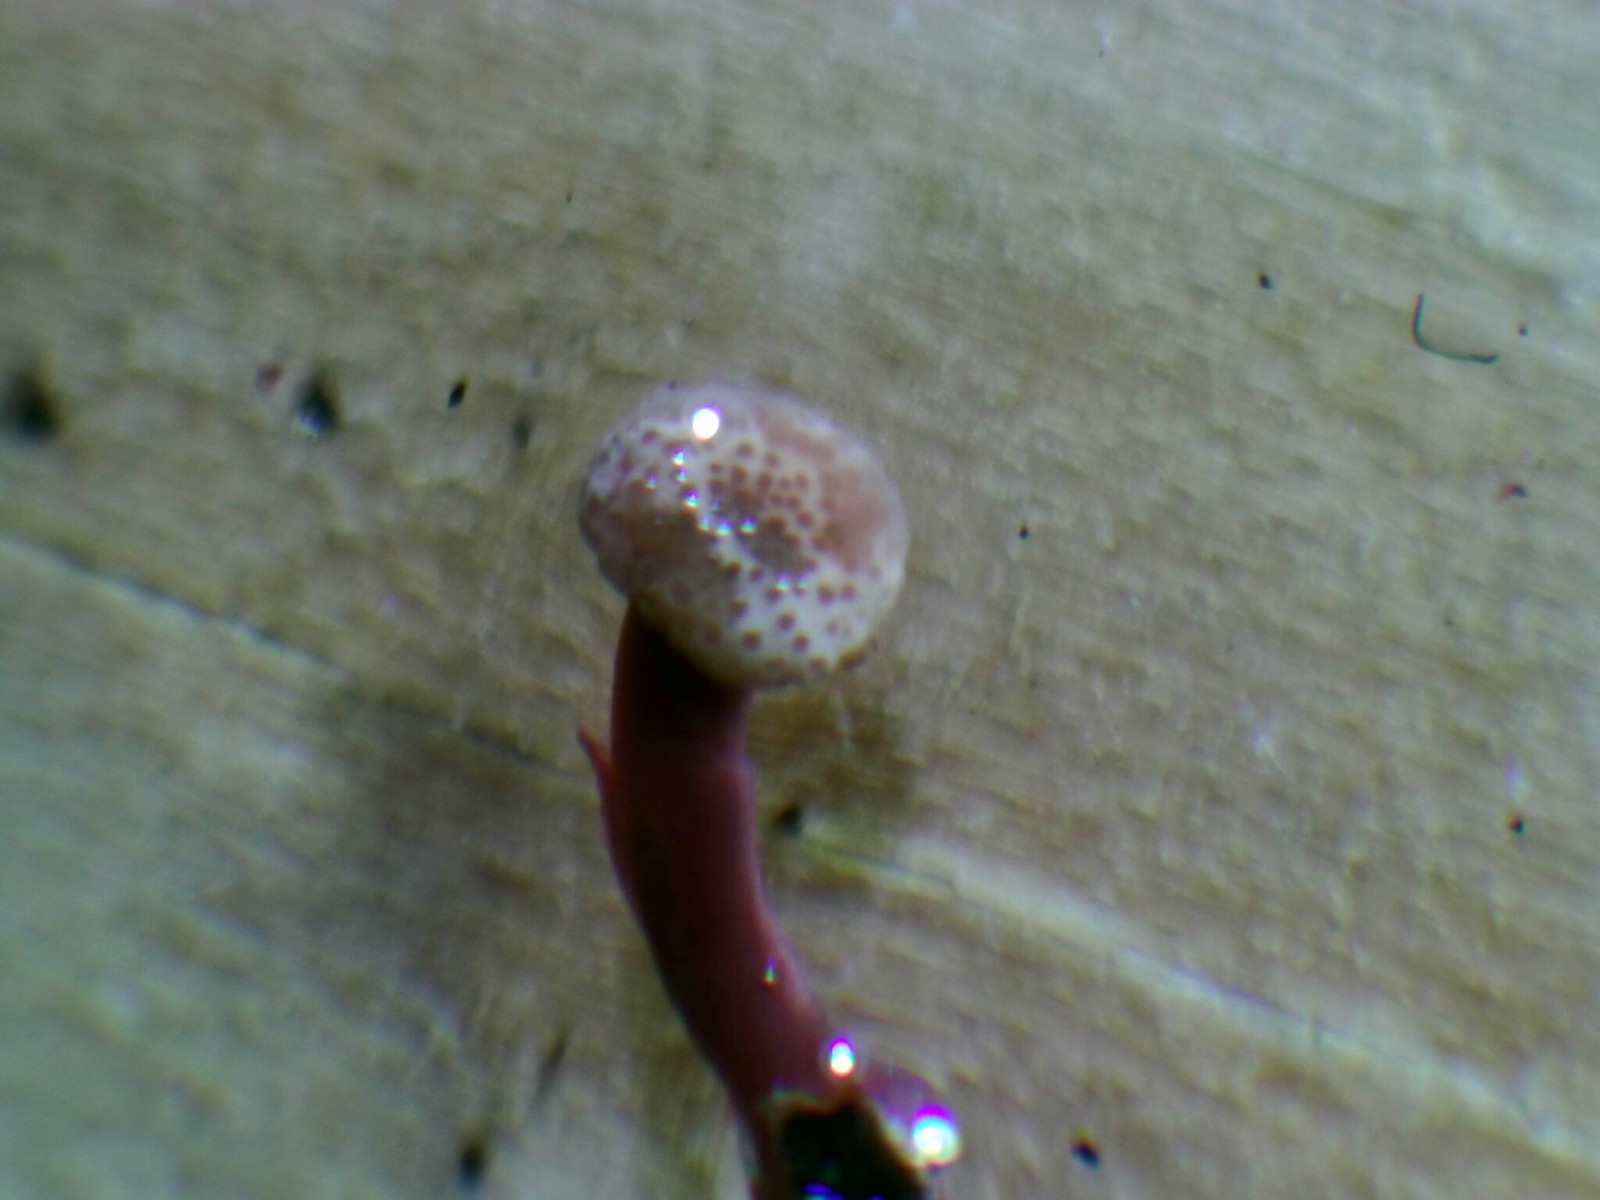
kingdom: Fungi
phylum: Ascomycota
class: Sordariomycetes
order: Hypocreales
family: Clavicipitaceae
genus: Claviceps
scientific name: Claviceps arundinis
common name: tagrør-meldrøjer
